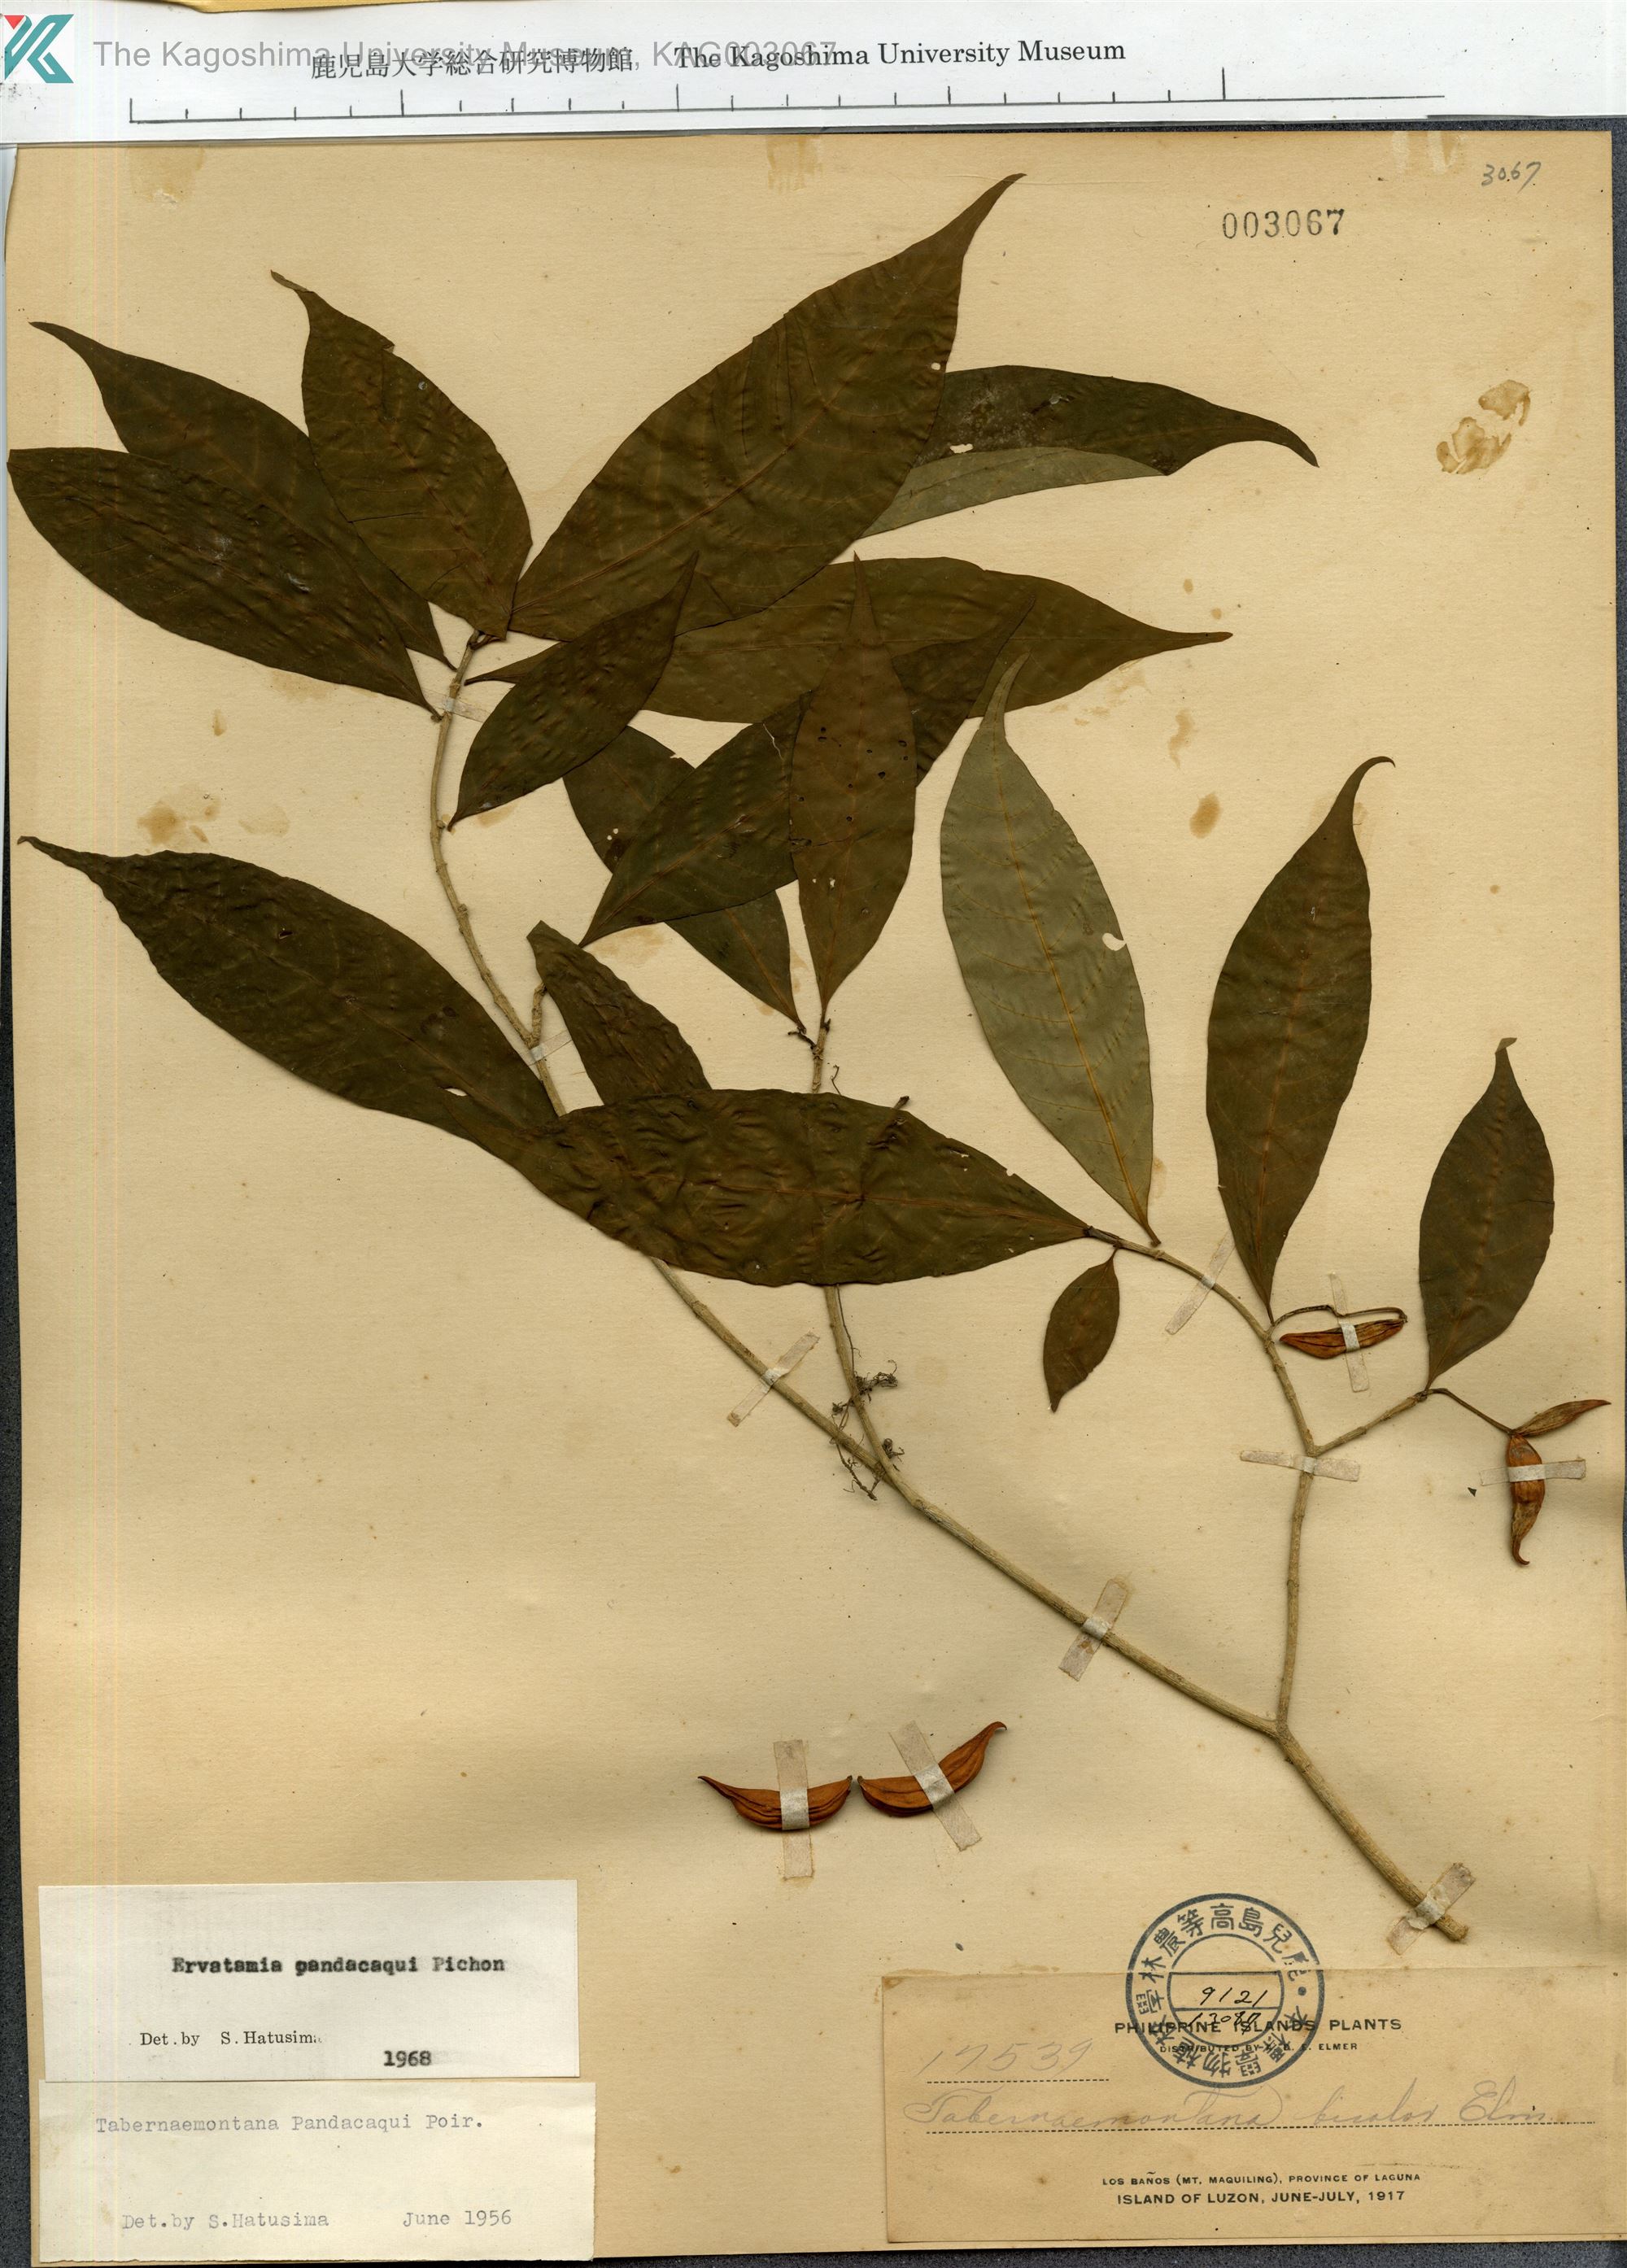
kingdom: Plantae
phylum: Tracheophyta
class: Magnoliopsida
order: Gentianales
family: Apocynaceae
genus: Tabernaemontana
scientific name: Tabernaemontana pandacaqui
